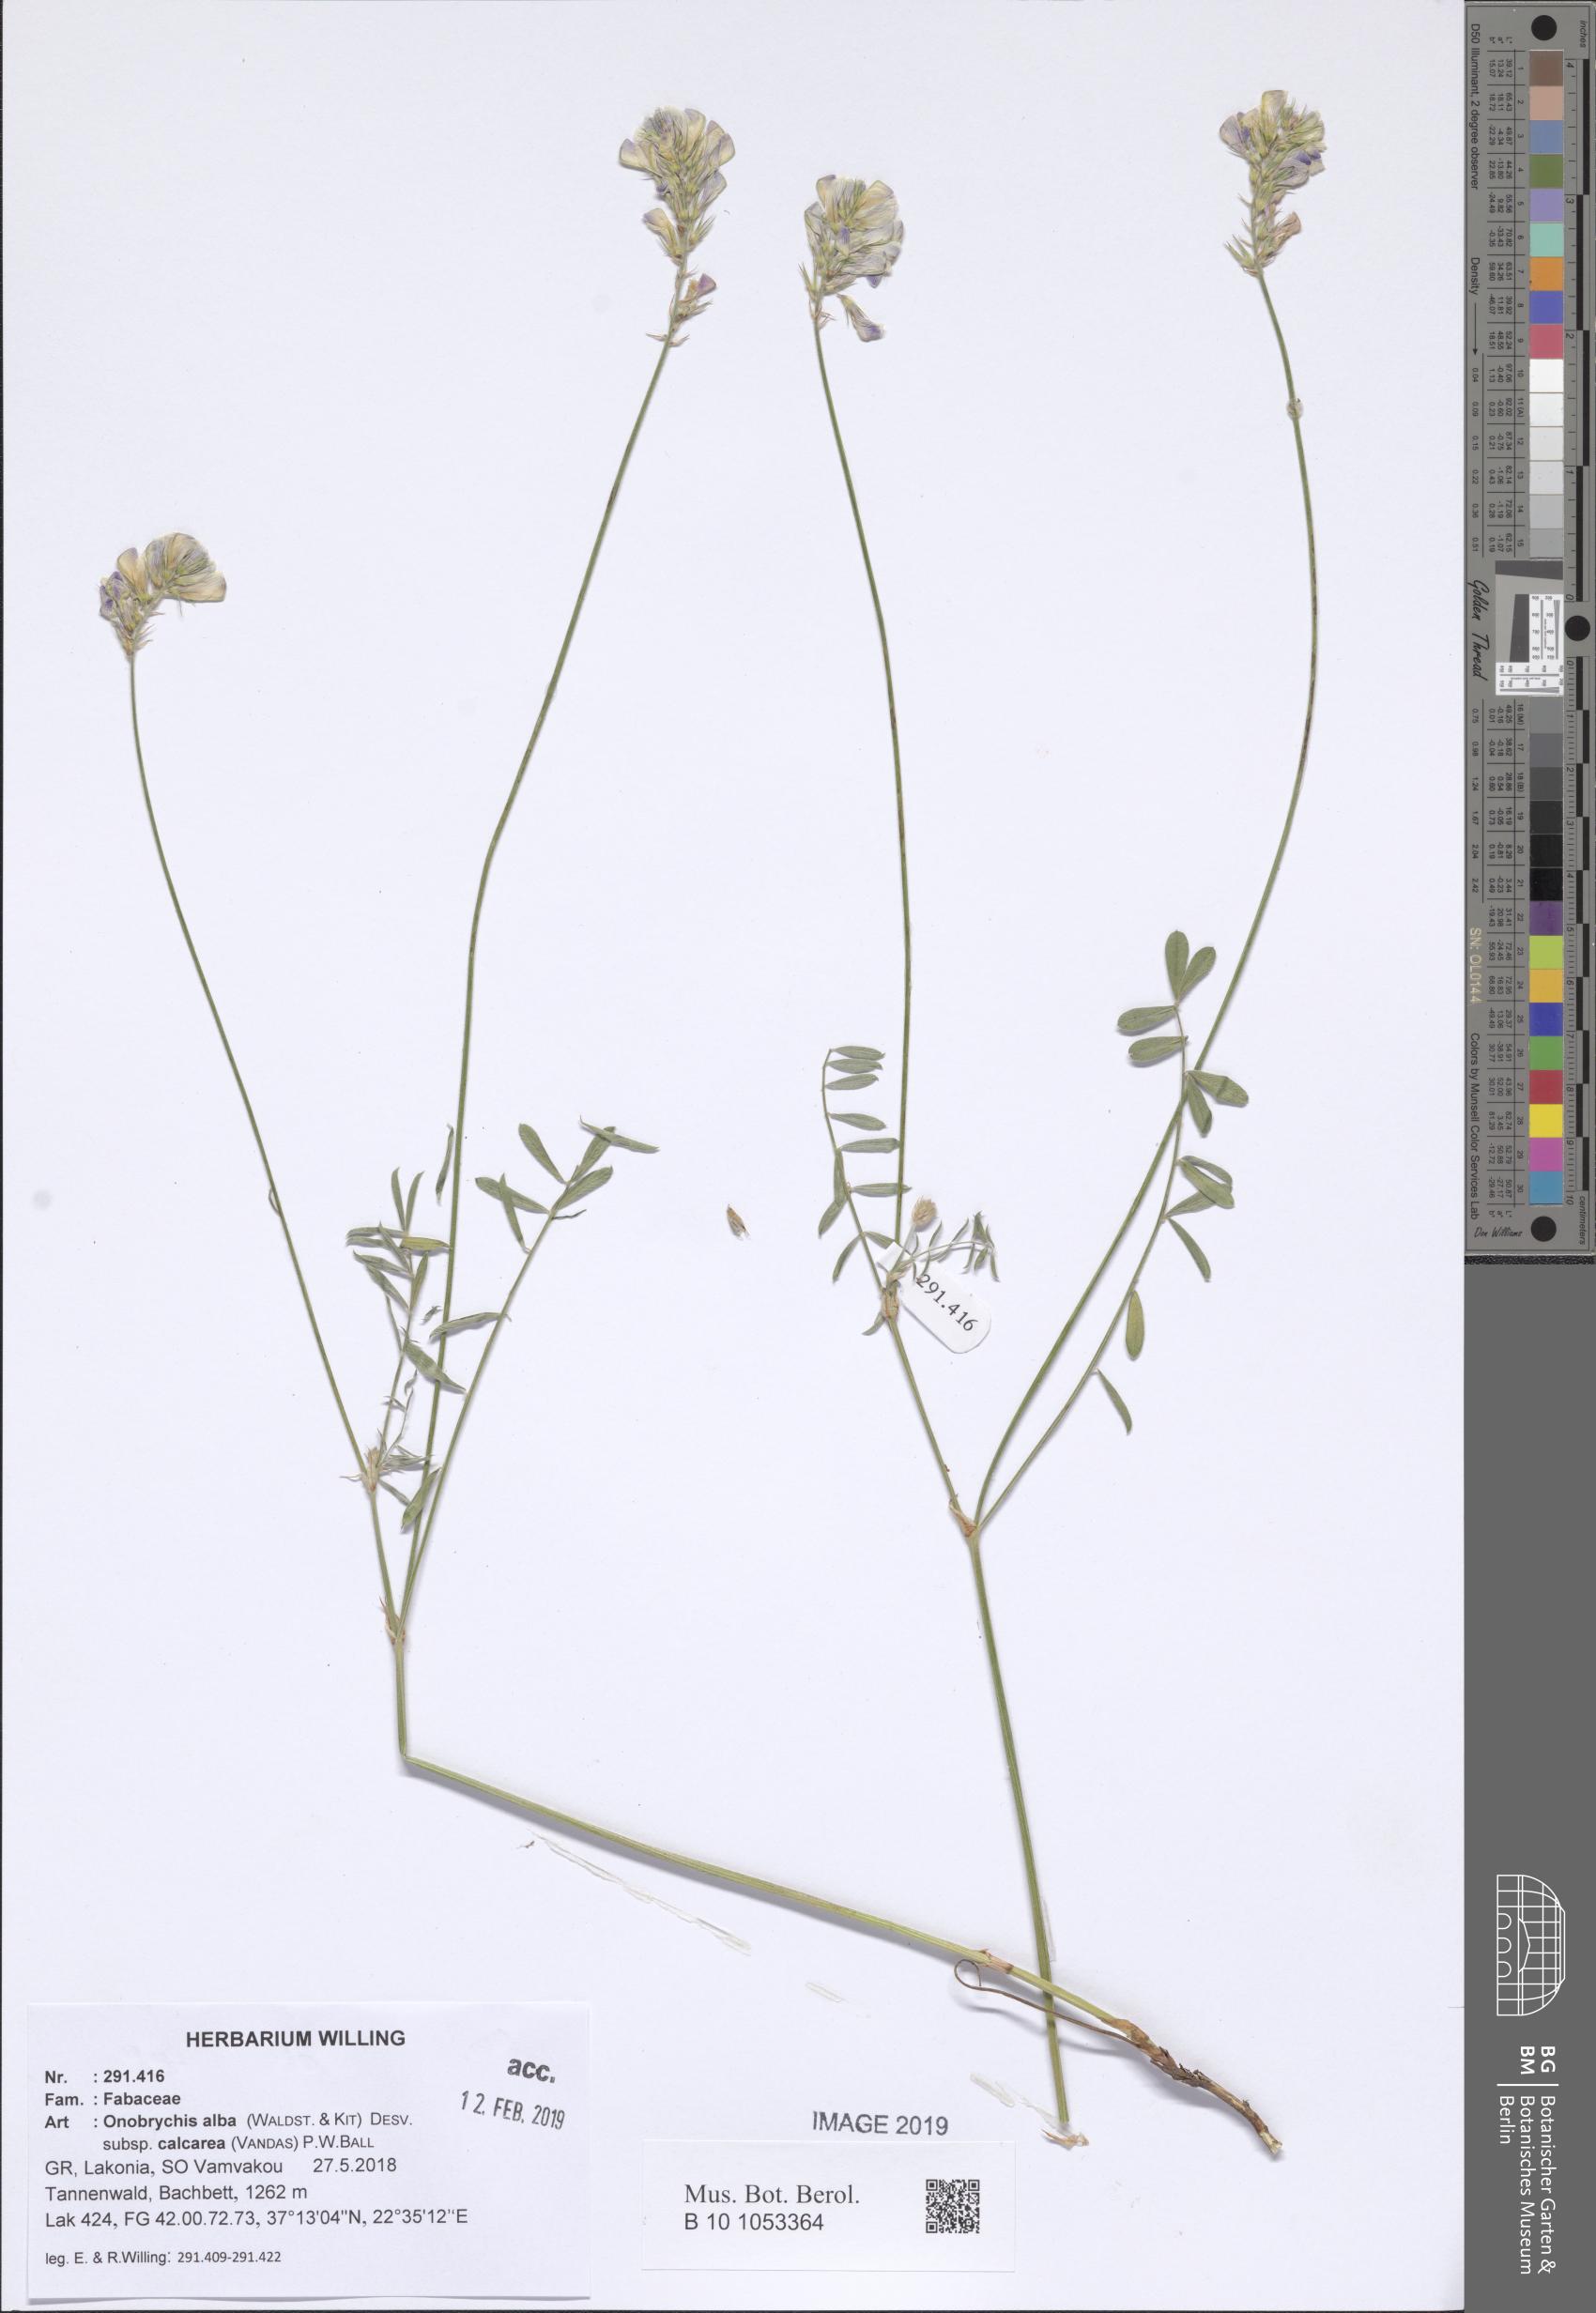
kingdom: Plantae
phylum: Tracheophyta
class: Magnoliopsida
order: Fabales
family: Fabaceae
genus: Onobrychis
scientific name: Onobrychis alba
